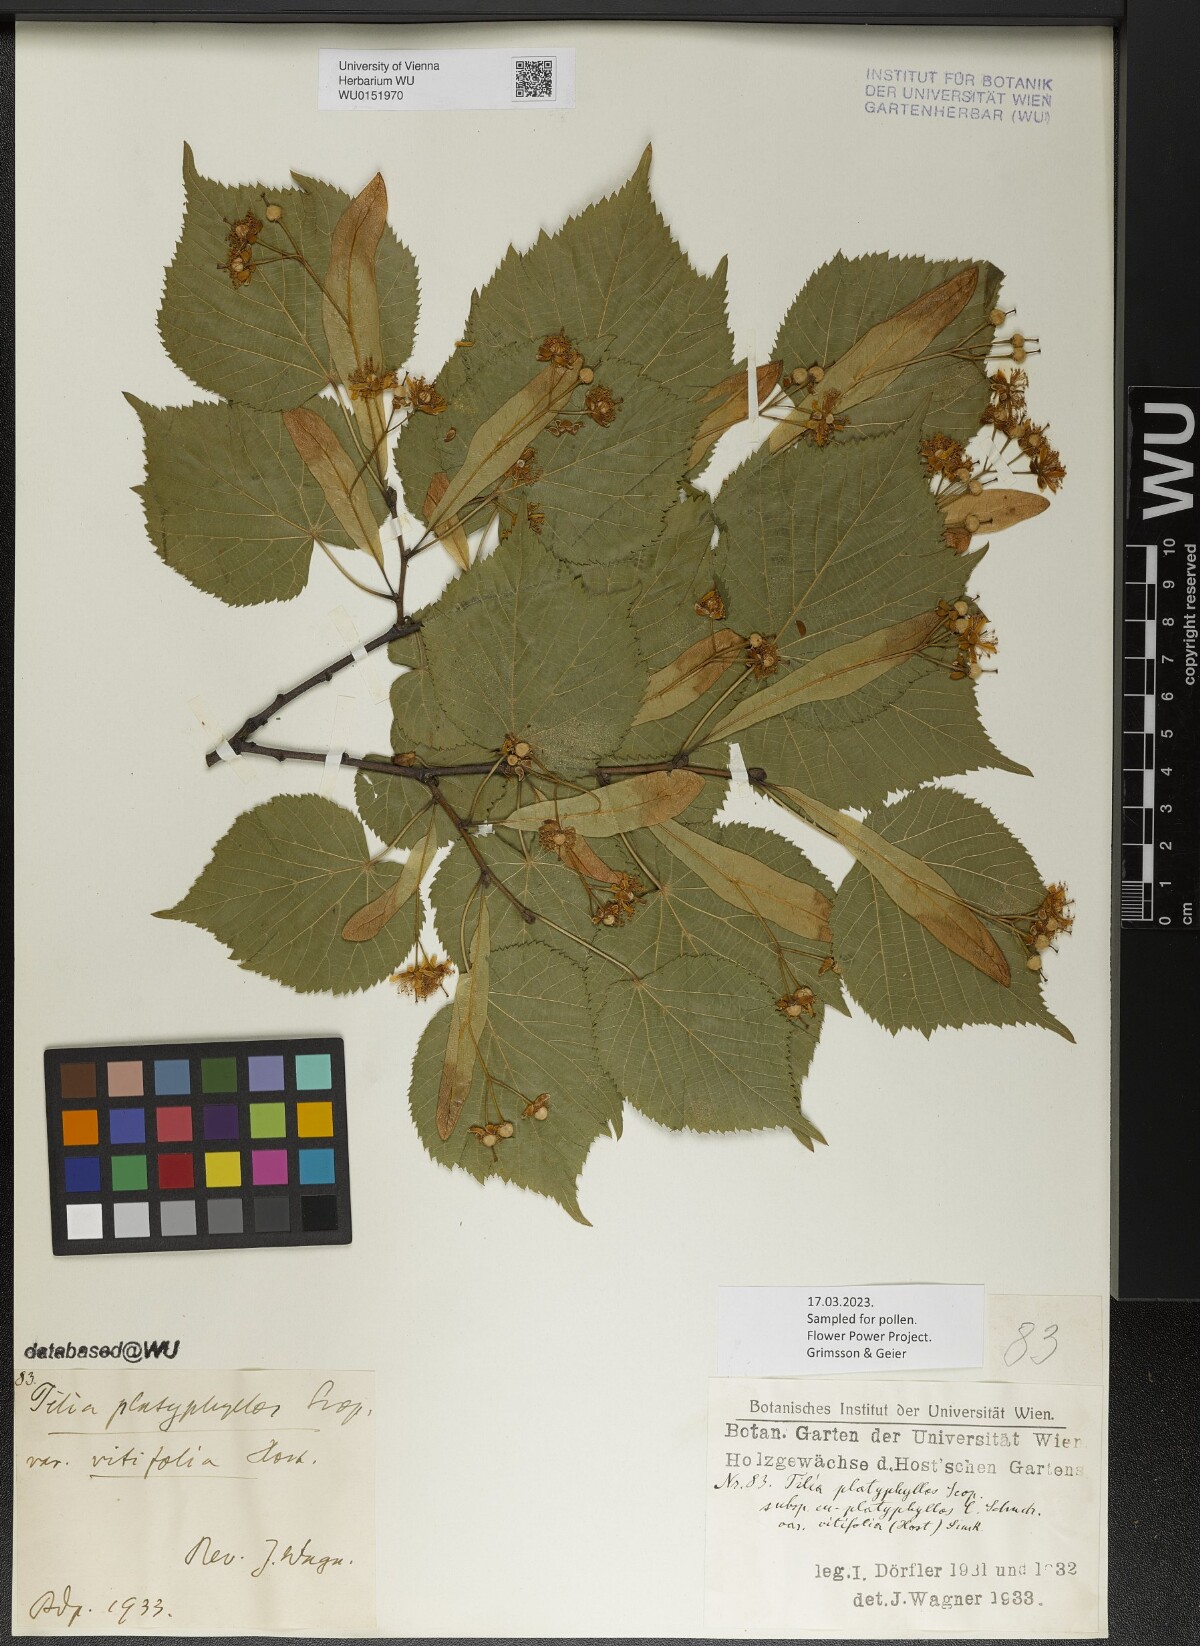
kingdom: Plantae
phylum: Tracheophyta
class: Magnoliopsida
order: Malvales
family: Malvaceae
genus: Tilia
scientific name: Tilia platyphyllos
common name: Large-leaved lime
